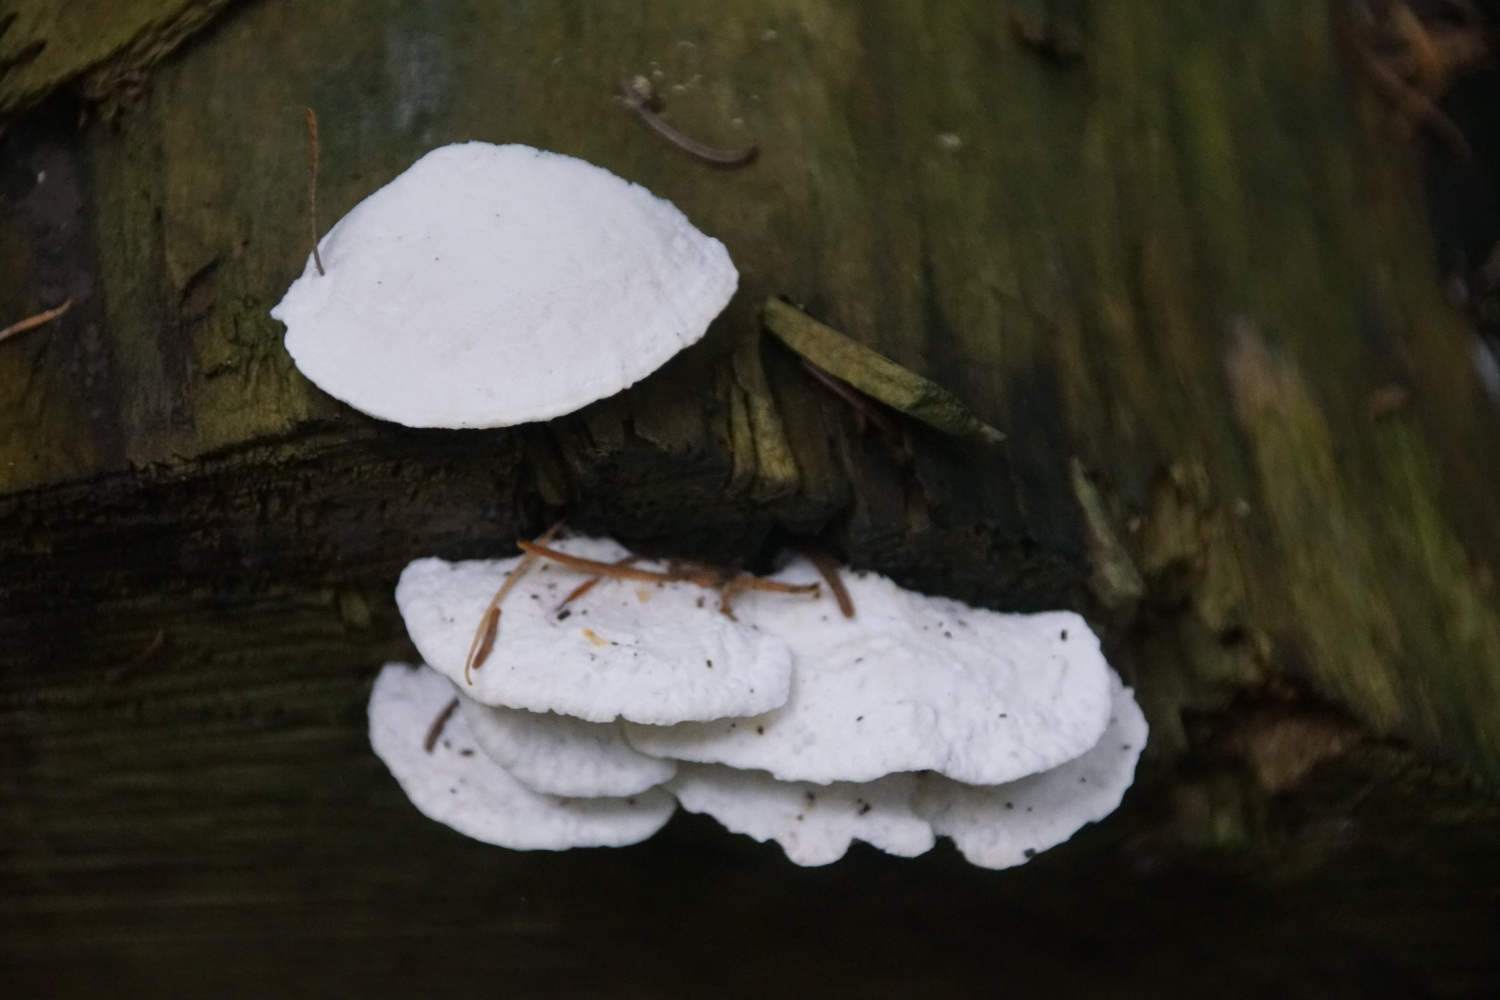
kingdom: Fungi
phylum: Basidiomycota
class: Agaricomycetes
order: Polyporales
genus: Amaropostia
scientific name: Amaropostia stiptica
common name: bitter kødporesvamp
